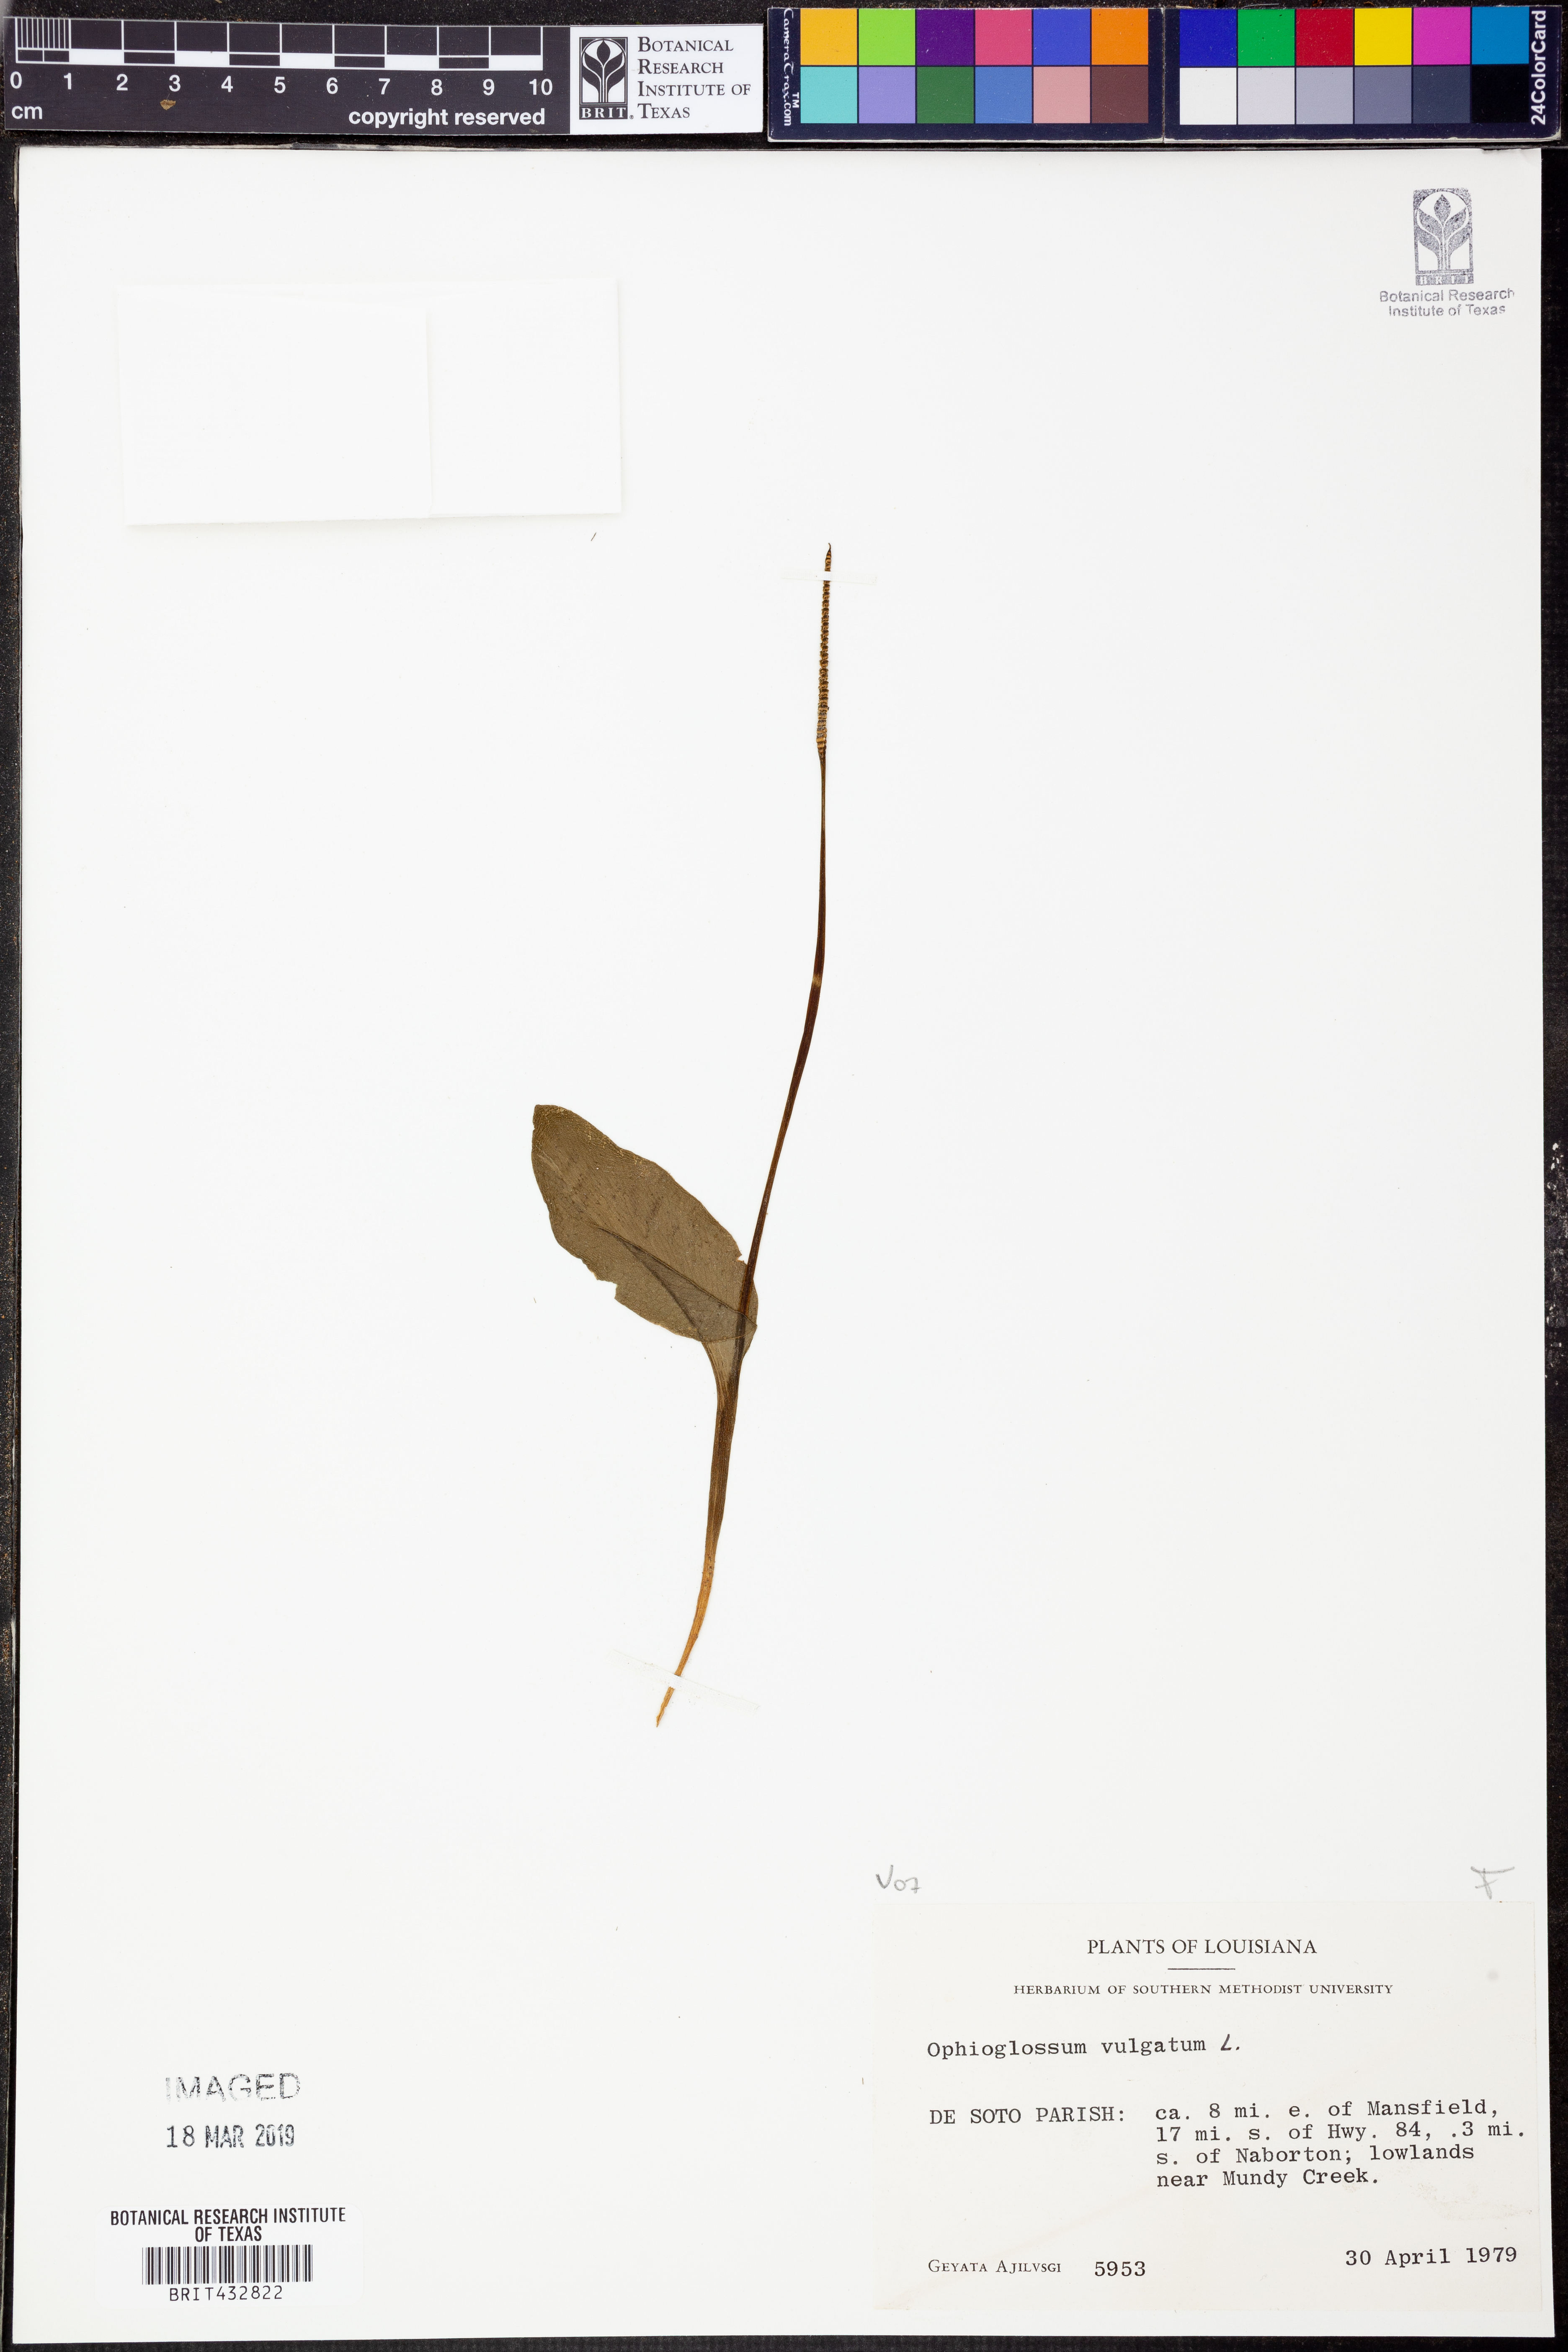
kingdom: Plantae
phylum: Tracheophyta
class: Polypodiopsida
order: Ophioglossales
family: Ophioglossaceae
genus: Ophioglossum
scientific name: Ophioglossum vulgatum
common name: Adder's-tongue
